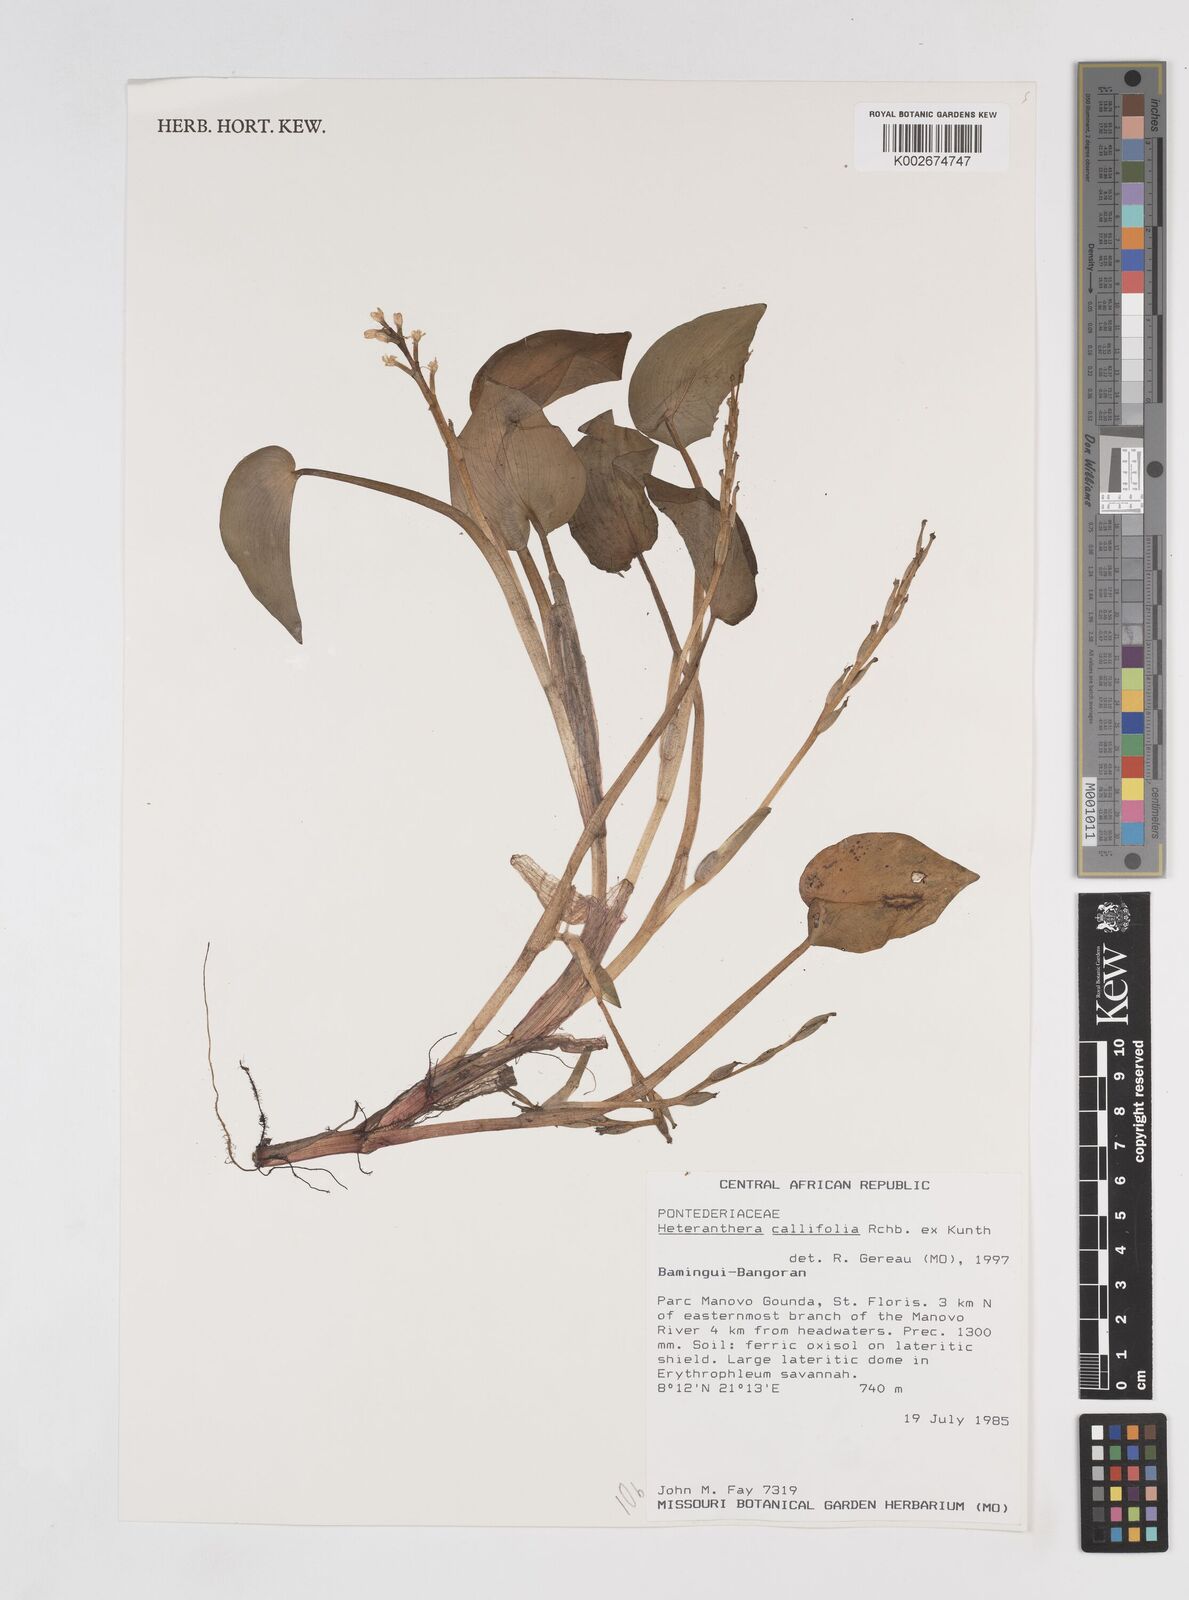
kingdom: Plantae
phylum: Tracheophyta
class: Liliopsida
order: Commelinales
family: Pontederiaceae
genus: Heteranthera
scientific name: Heteranthera callifolia
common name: Mud plantain
